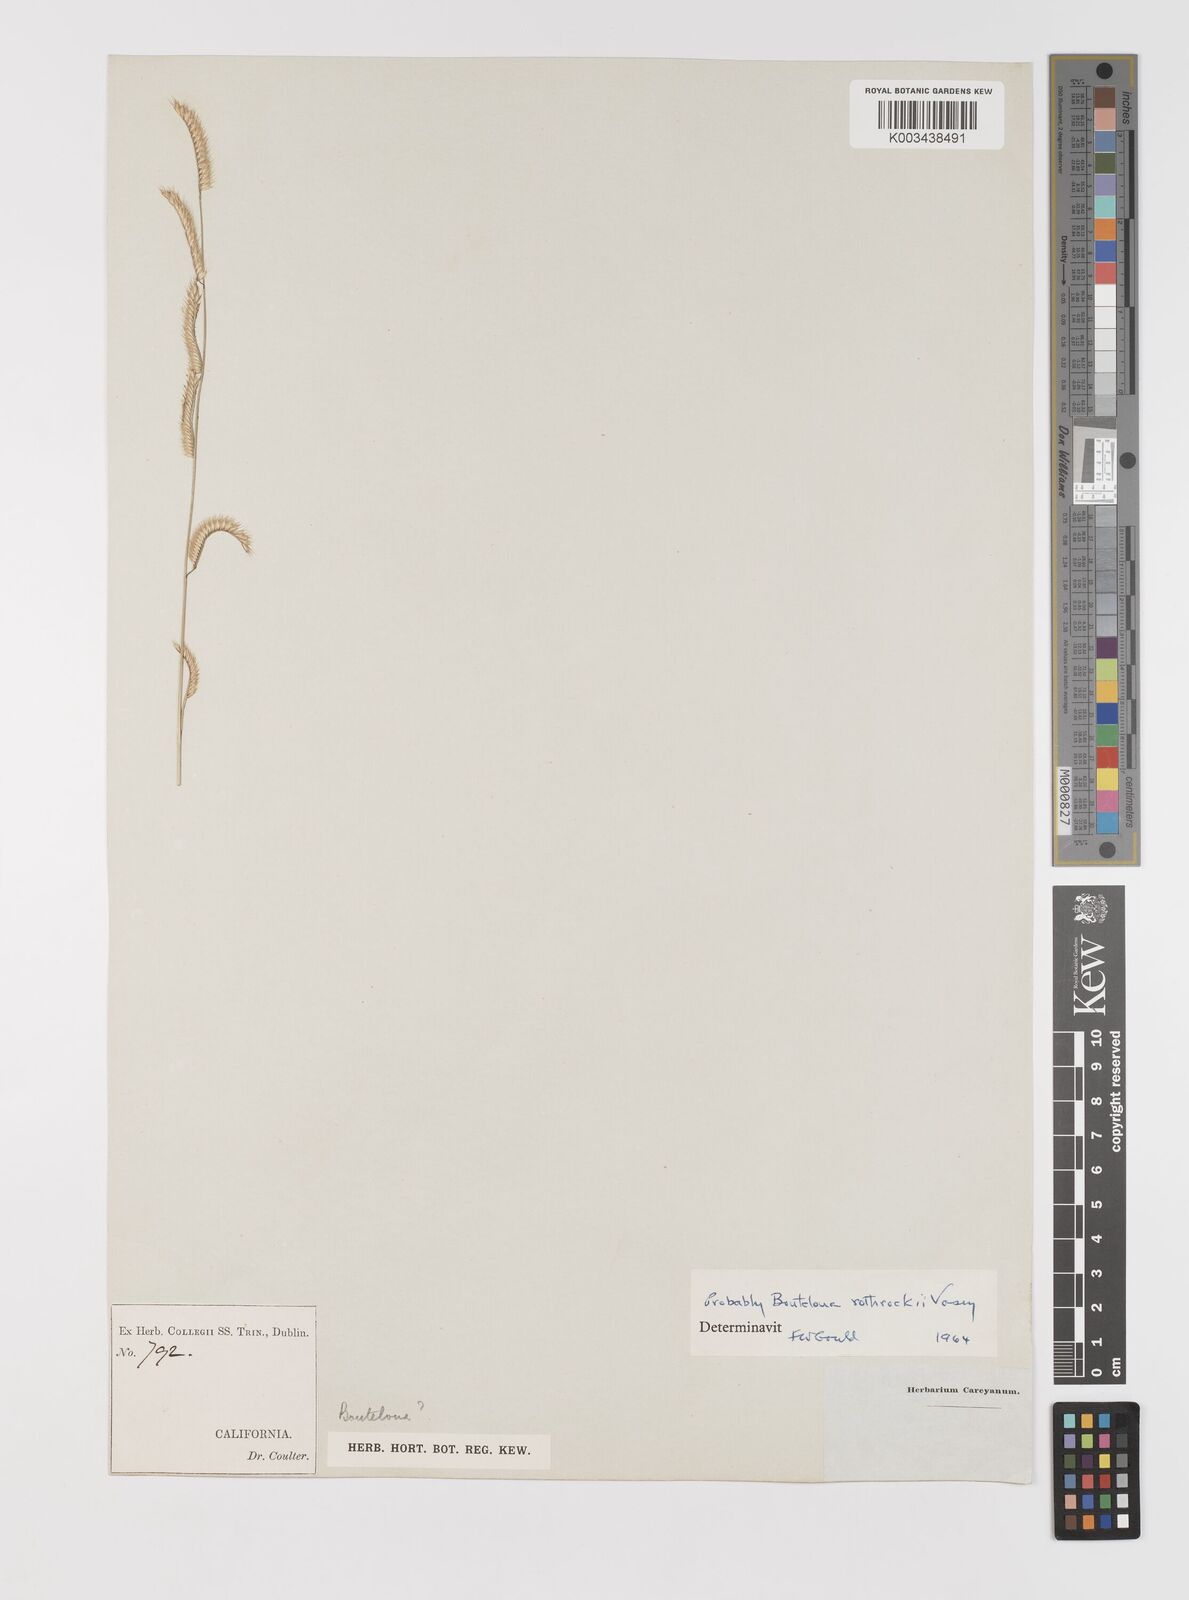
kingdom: Plantae
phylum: Tracheophyta
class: Liliopsida
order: Poales
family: Poaceae
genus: Bouteloua
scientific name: Bouteloua
